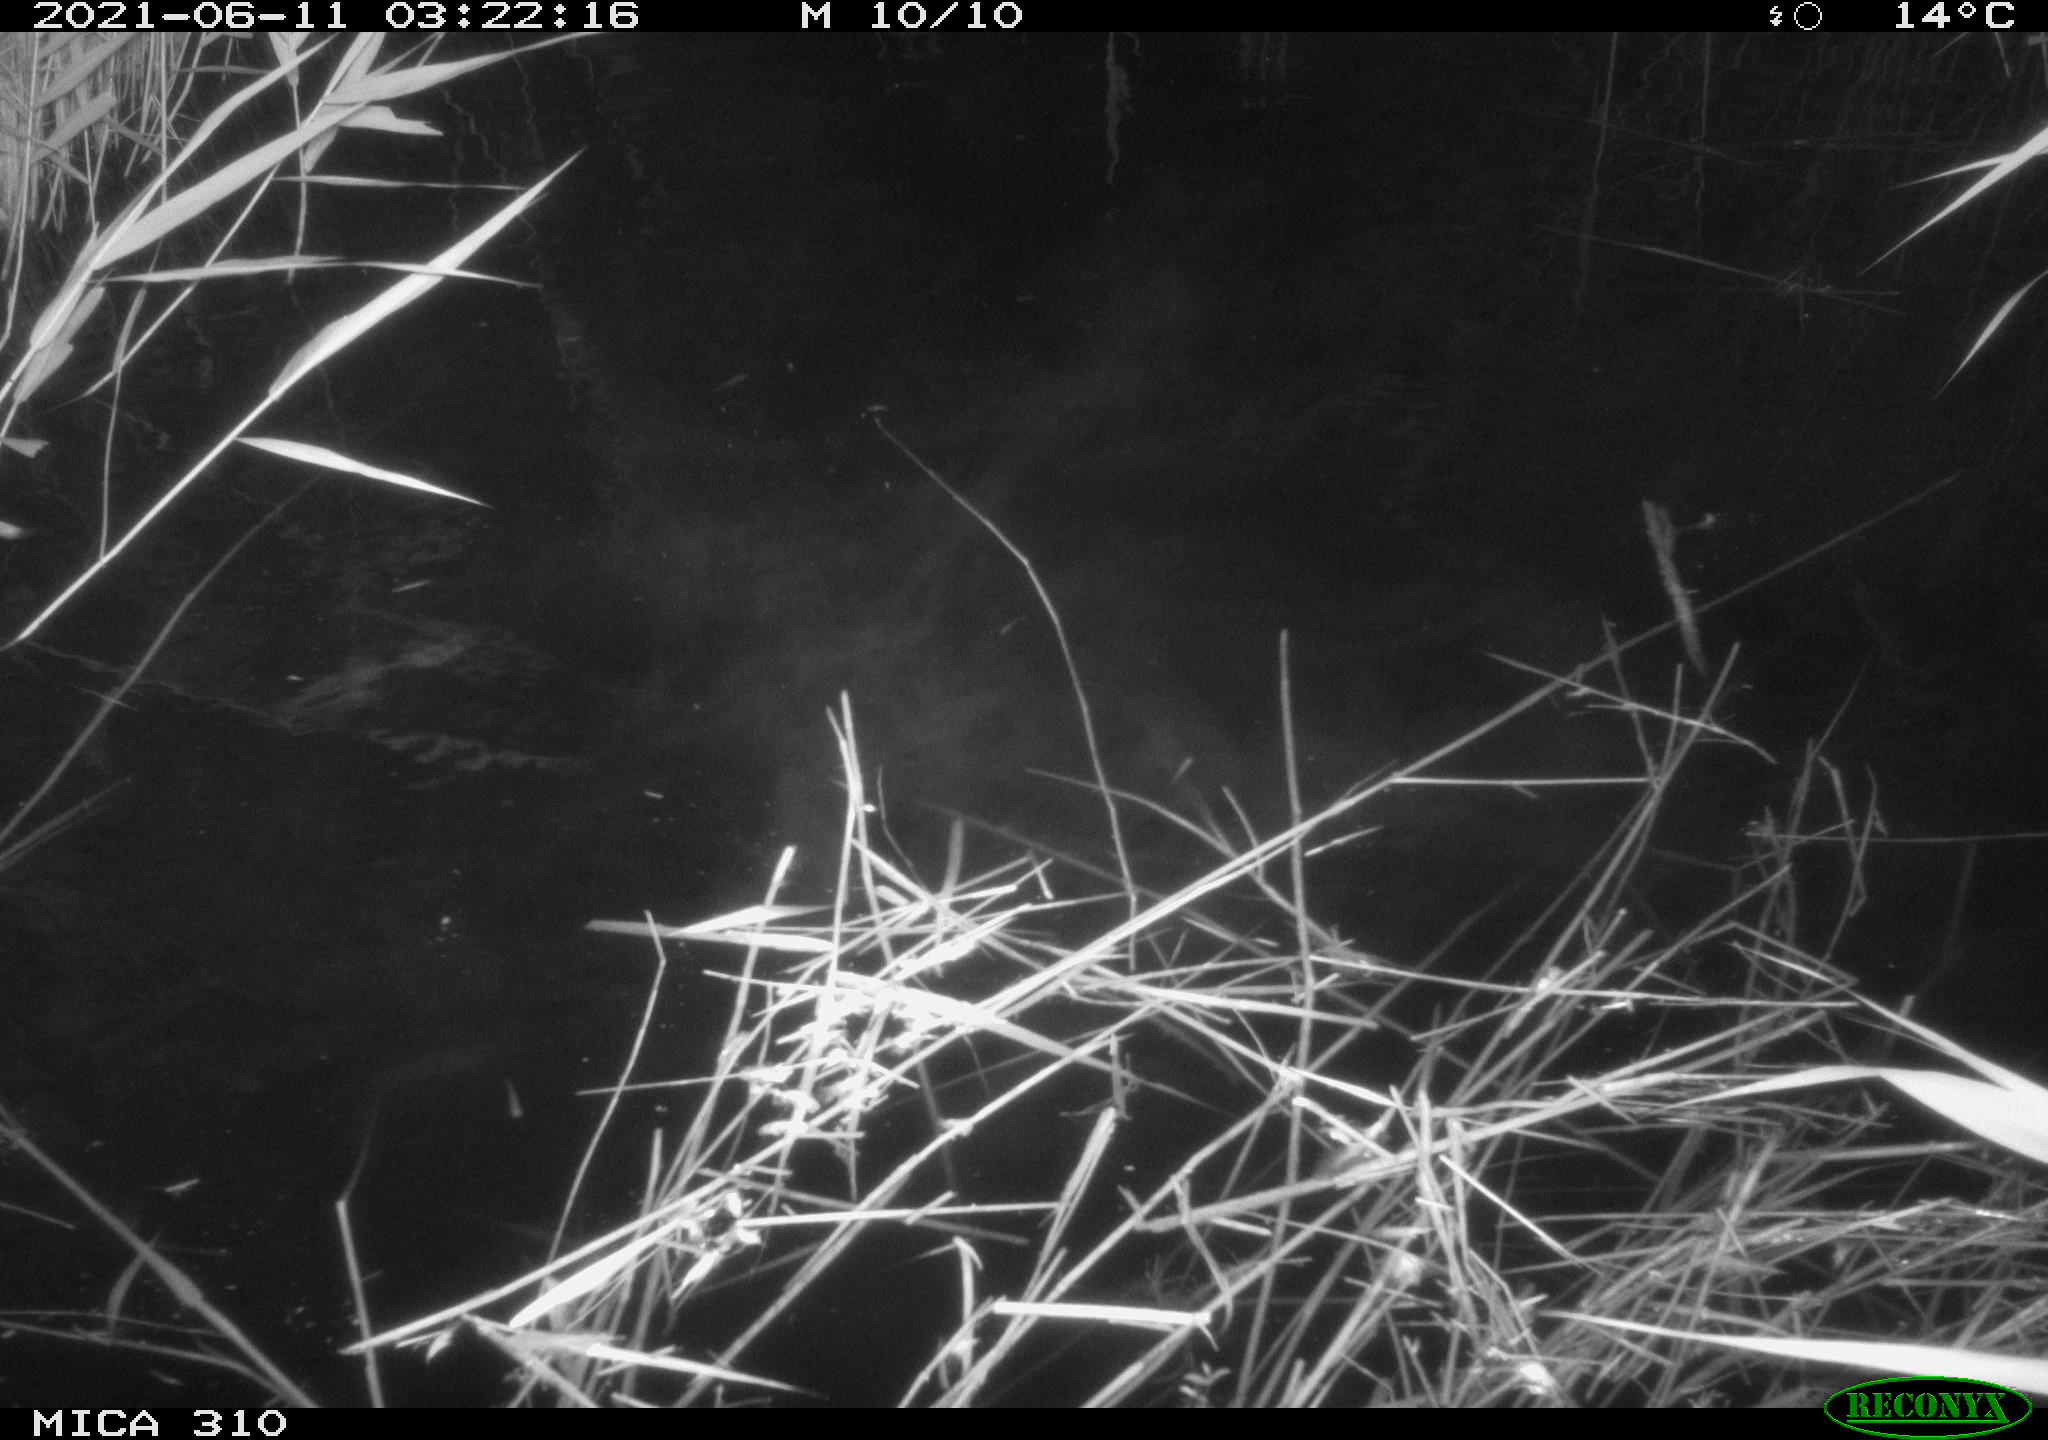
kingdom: Animalia
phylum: Chordata
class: Mammalia
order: Rodentia
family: Cricetidae
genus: Ondatra
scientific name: Ondatra zibethicus
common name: Muskrat
